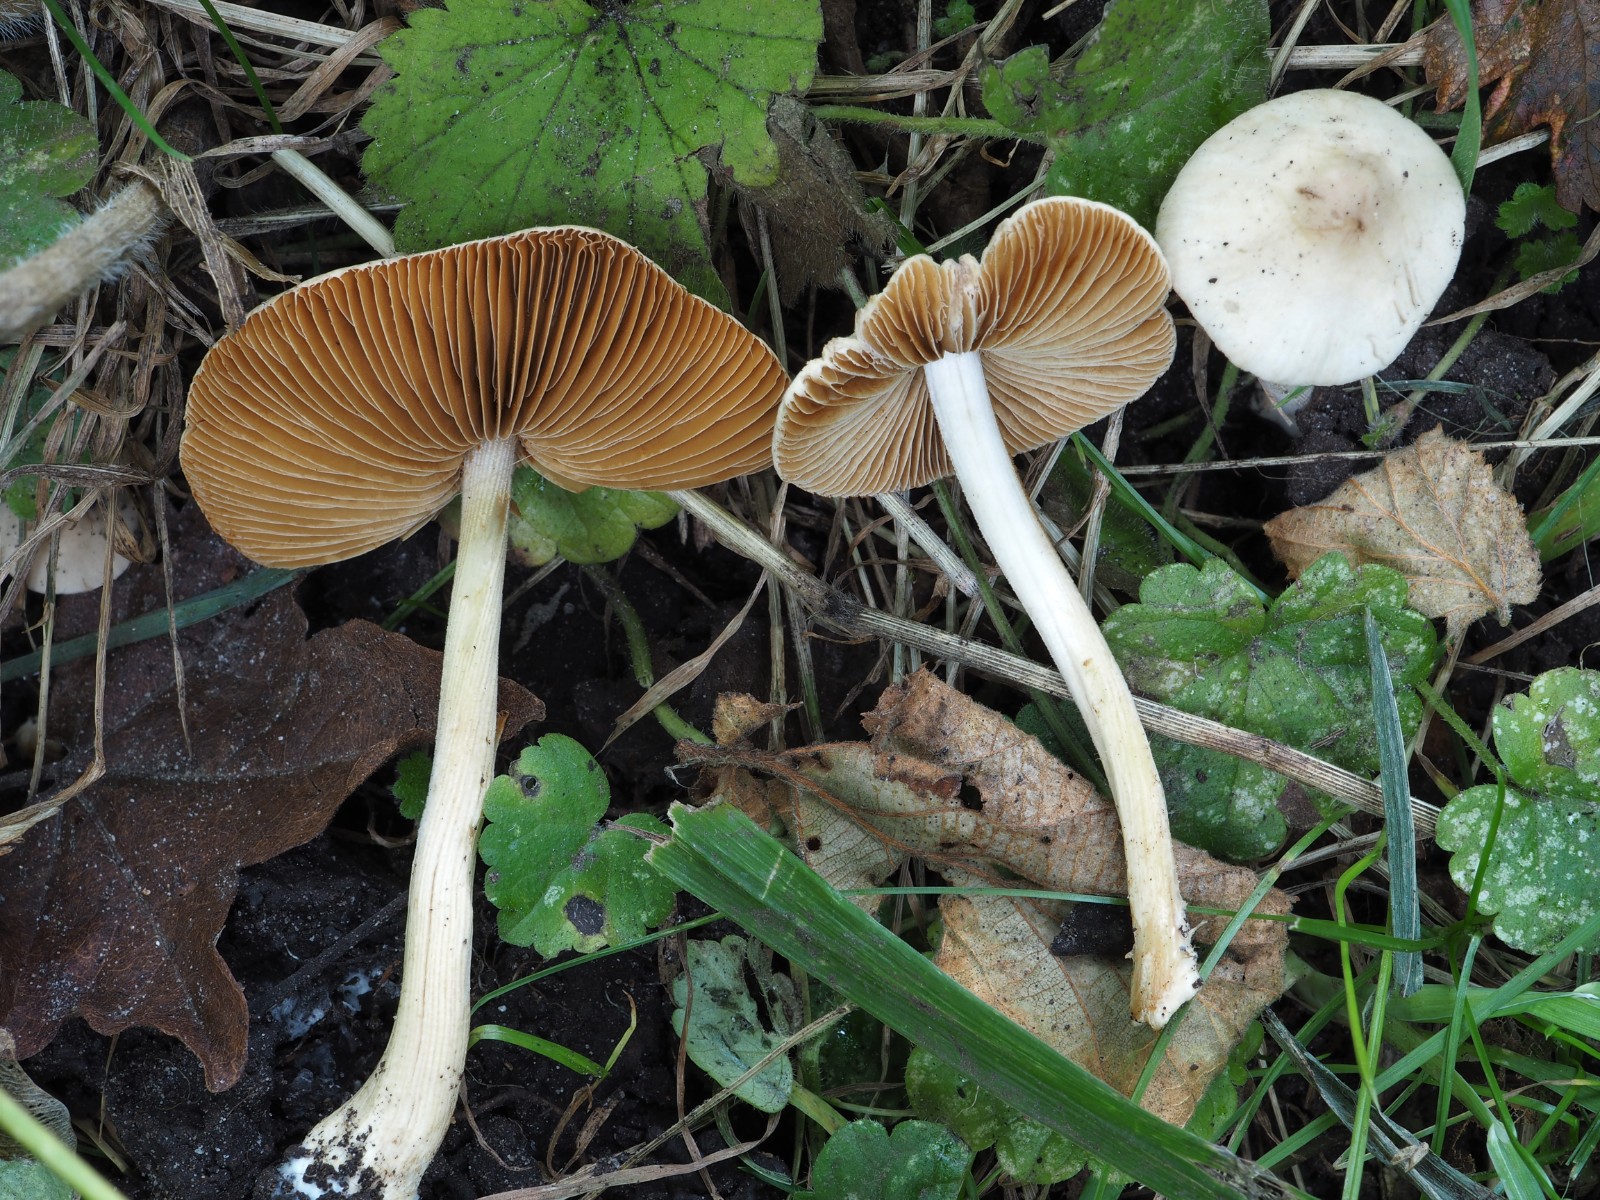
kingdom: Fungi
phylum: Basidiomycota
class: Agaricomycetes
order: Agaricales
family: Bolbitiaceae
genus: Conocybe
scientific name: Conocybe inocybeoides
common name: knold-keglehat
